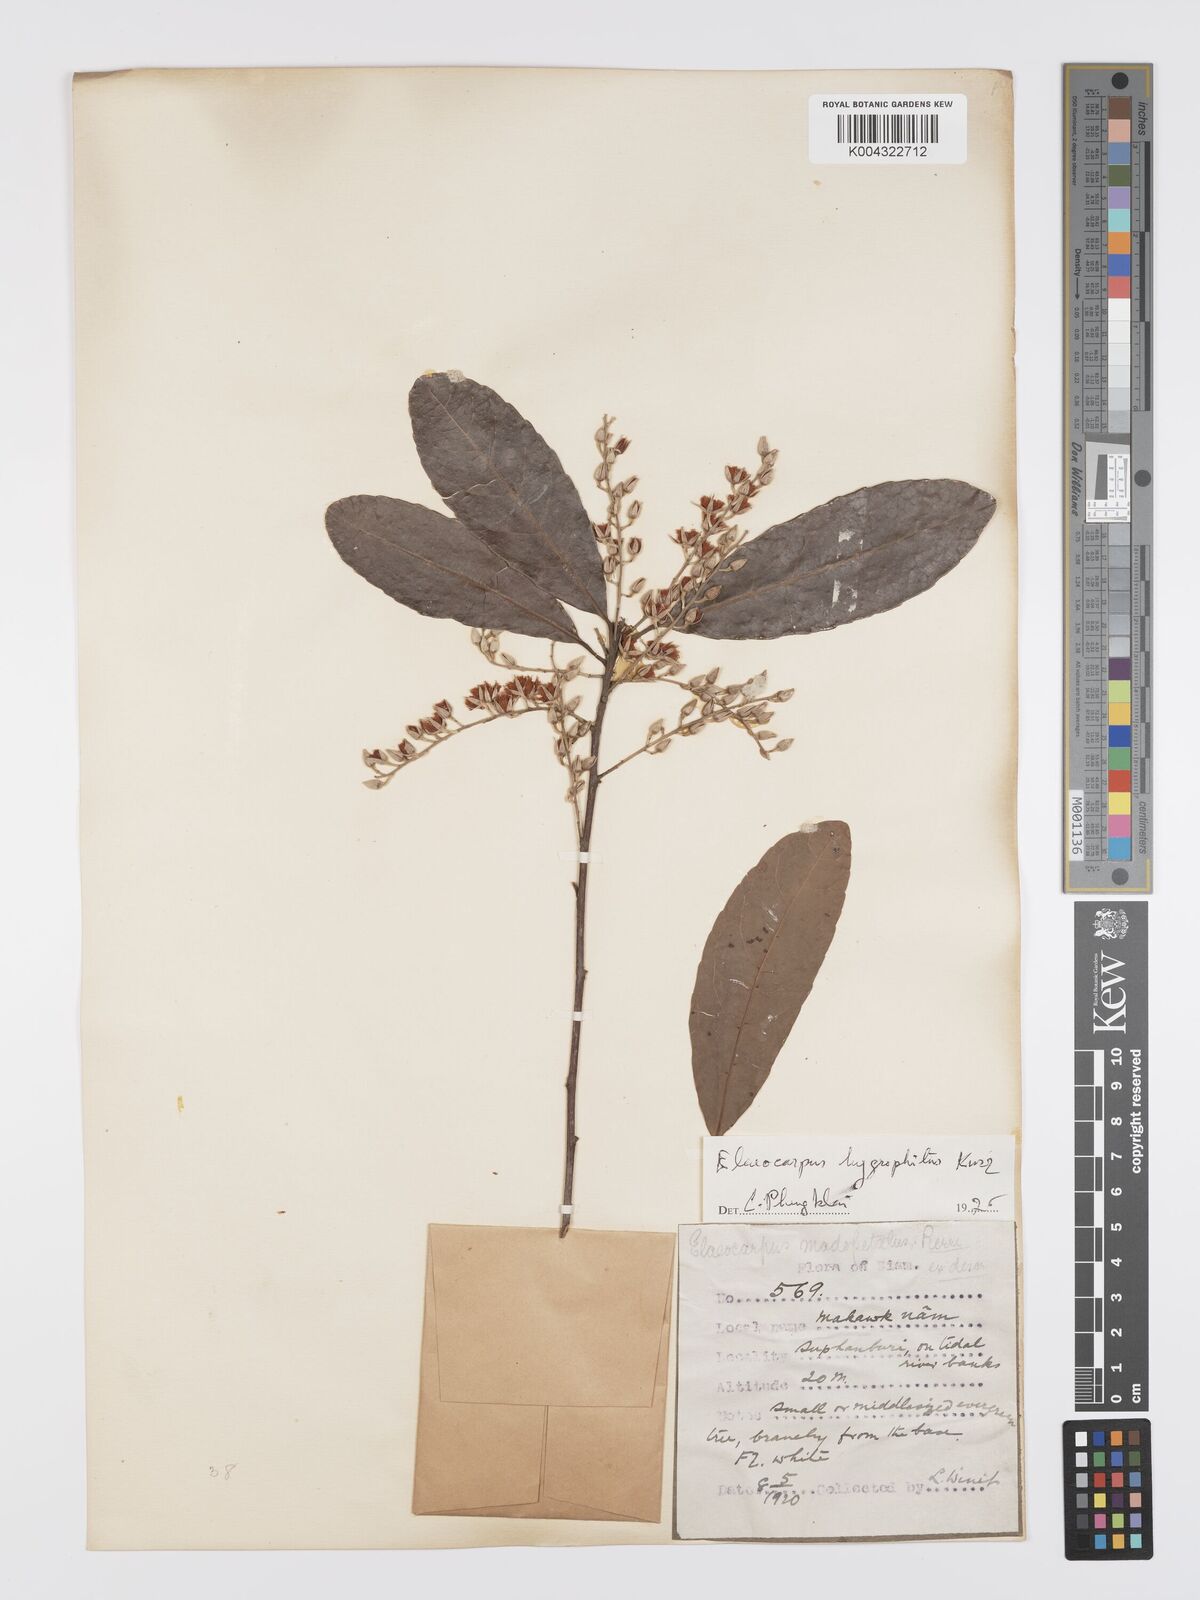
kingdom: Plantae
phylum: Tracheophyta
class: Magnoliopsida
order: Oxalidales
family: Elaeocarpaceae
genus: Elaeocarpus
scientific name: Elaeocarpus hygrophilus
